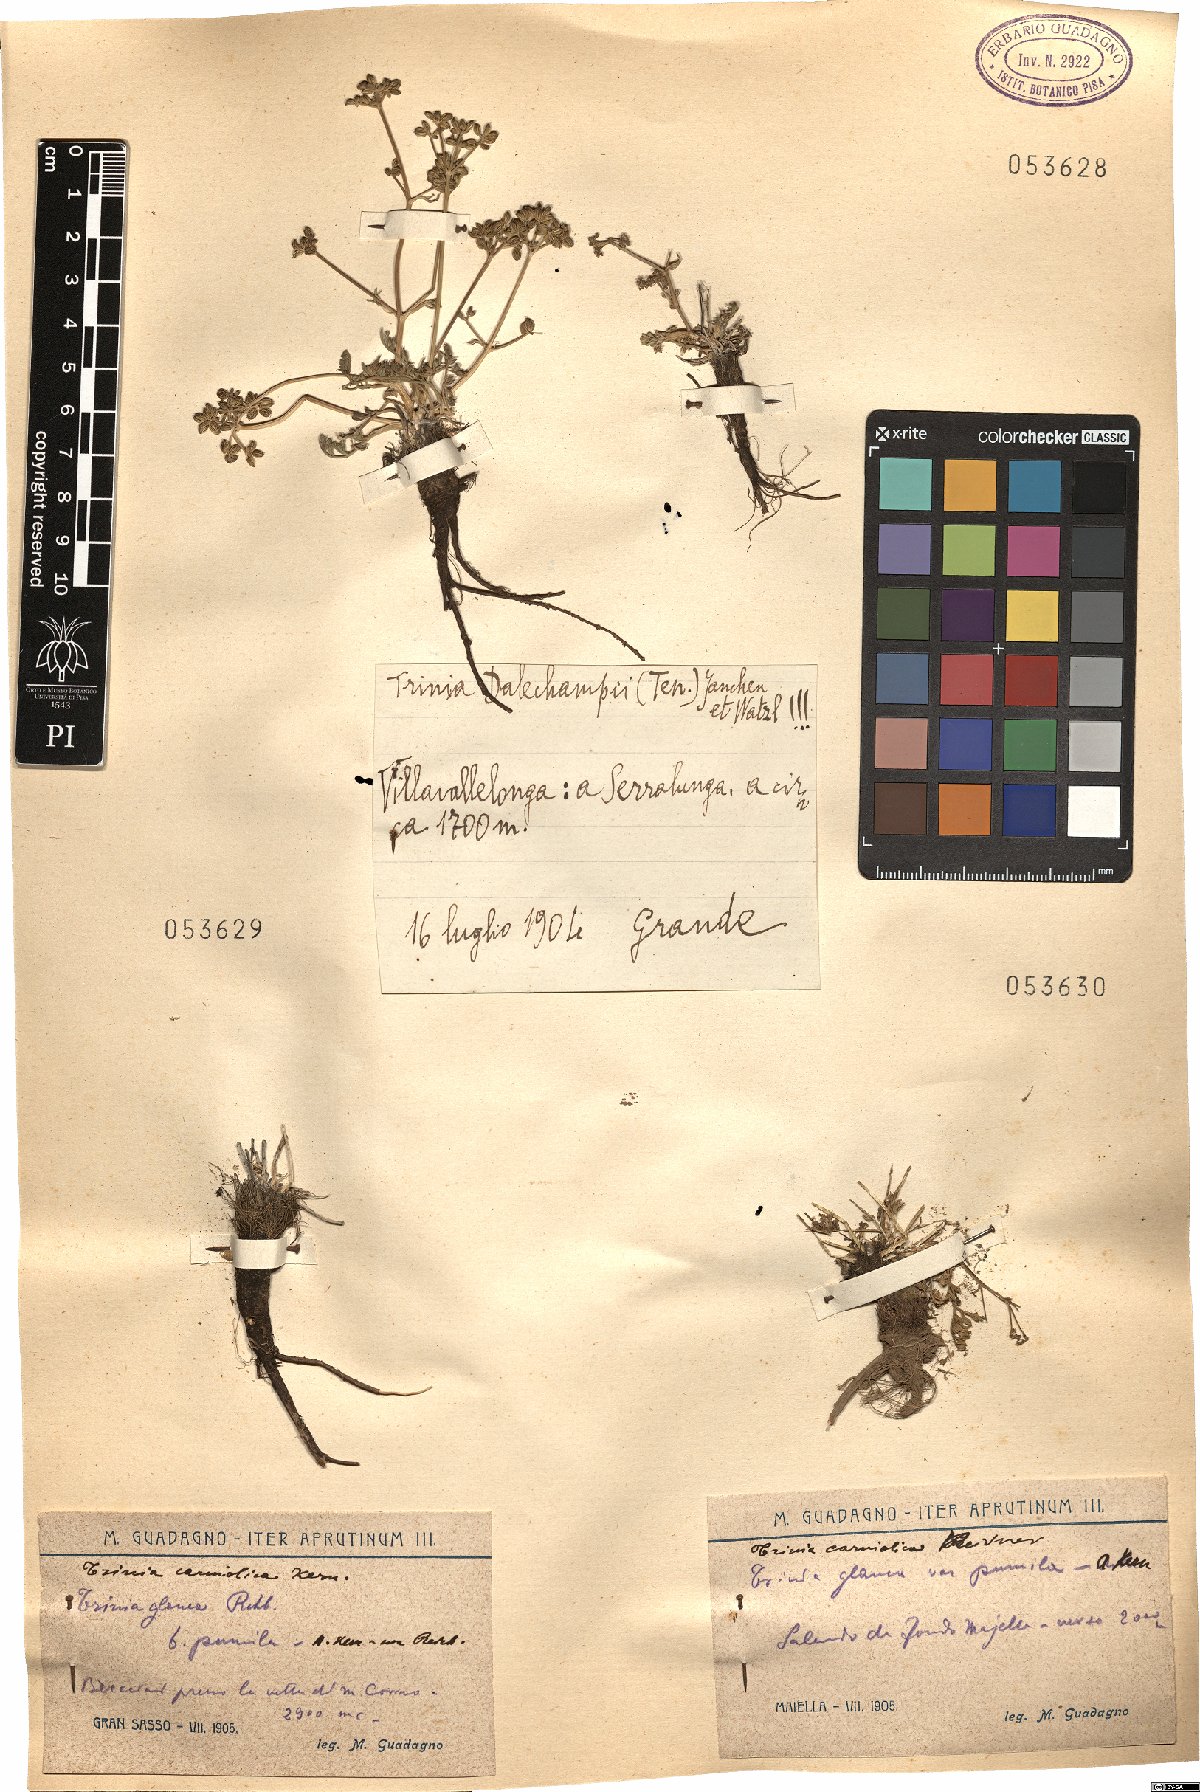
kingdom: Plantae
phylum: Tracheophyta
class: Magnoliopsida
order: Apiales
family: Apiaceae
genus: Trinia
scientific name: Trinia glauca
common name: Honewort
